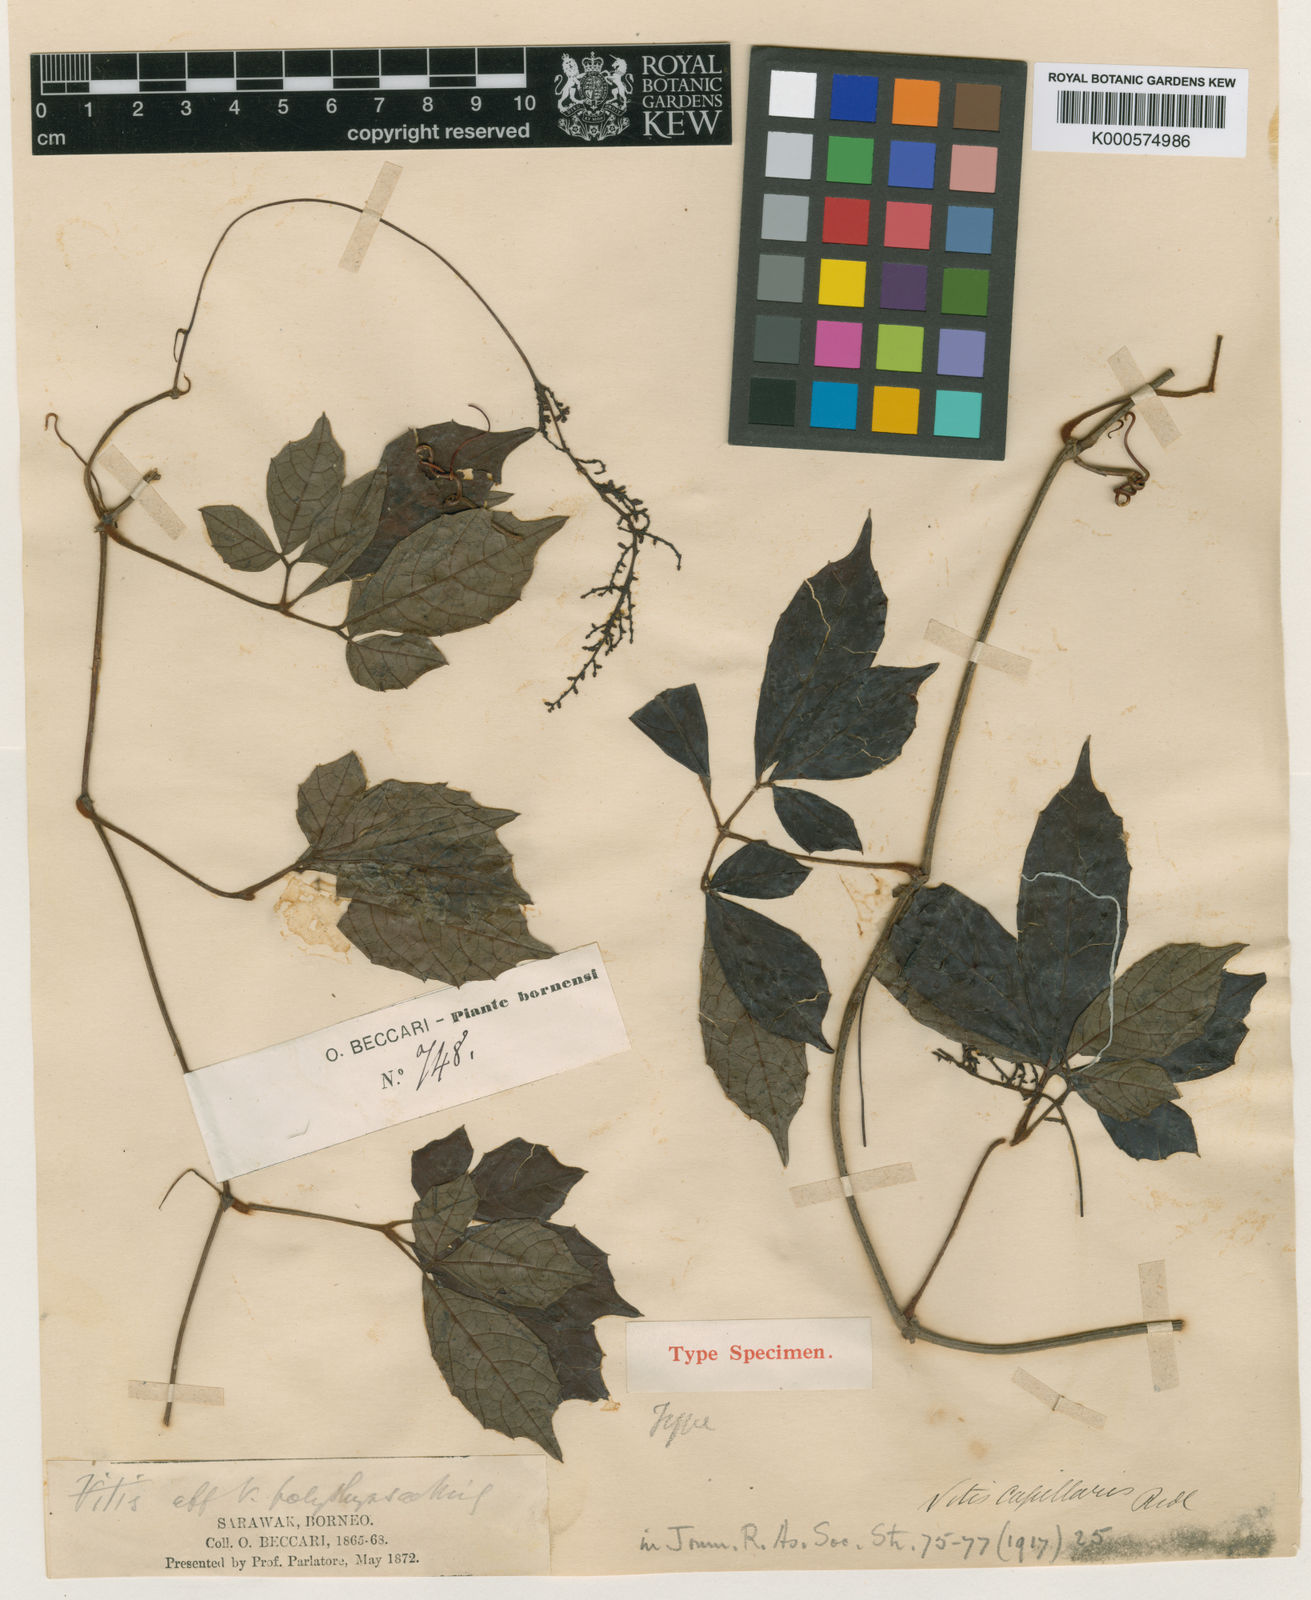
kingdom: Plantae
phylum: Tracheophyta
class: Magnoliopsida
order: Vitales
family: Vitaceae
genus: Ampelocissus
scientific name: Ampelocissus capillaris
